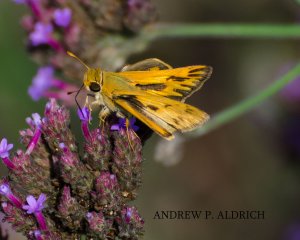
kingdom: Animalia
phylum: Arthropoda
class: Insecta
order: Lepidoptera
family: Hesperiidae
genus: Hylephila
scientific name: Hylephila phyleus
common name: Fiery Skipper
